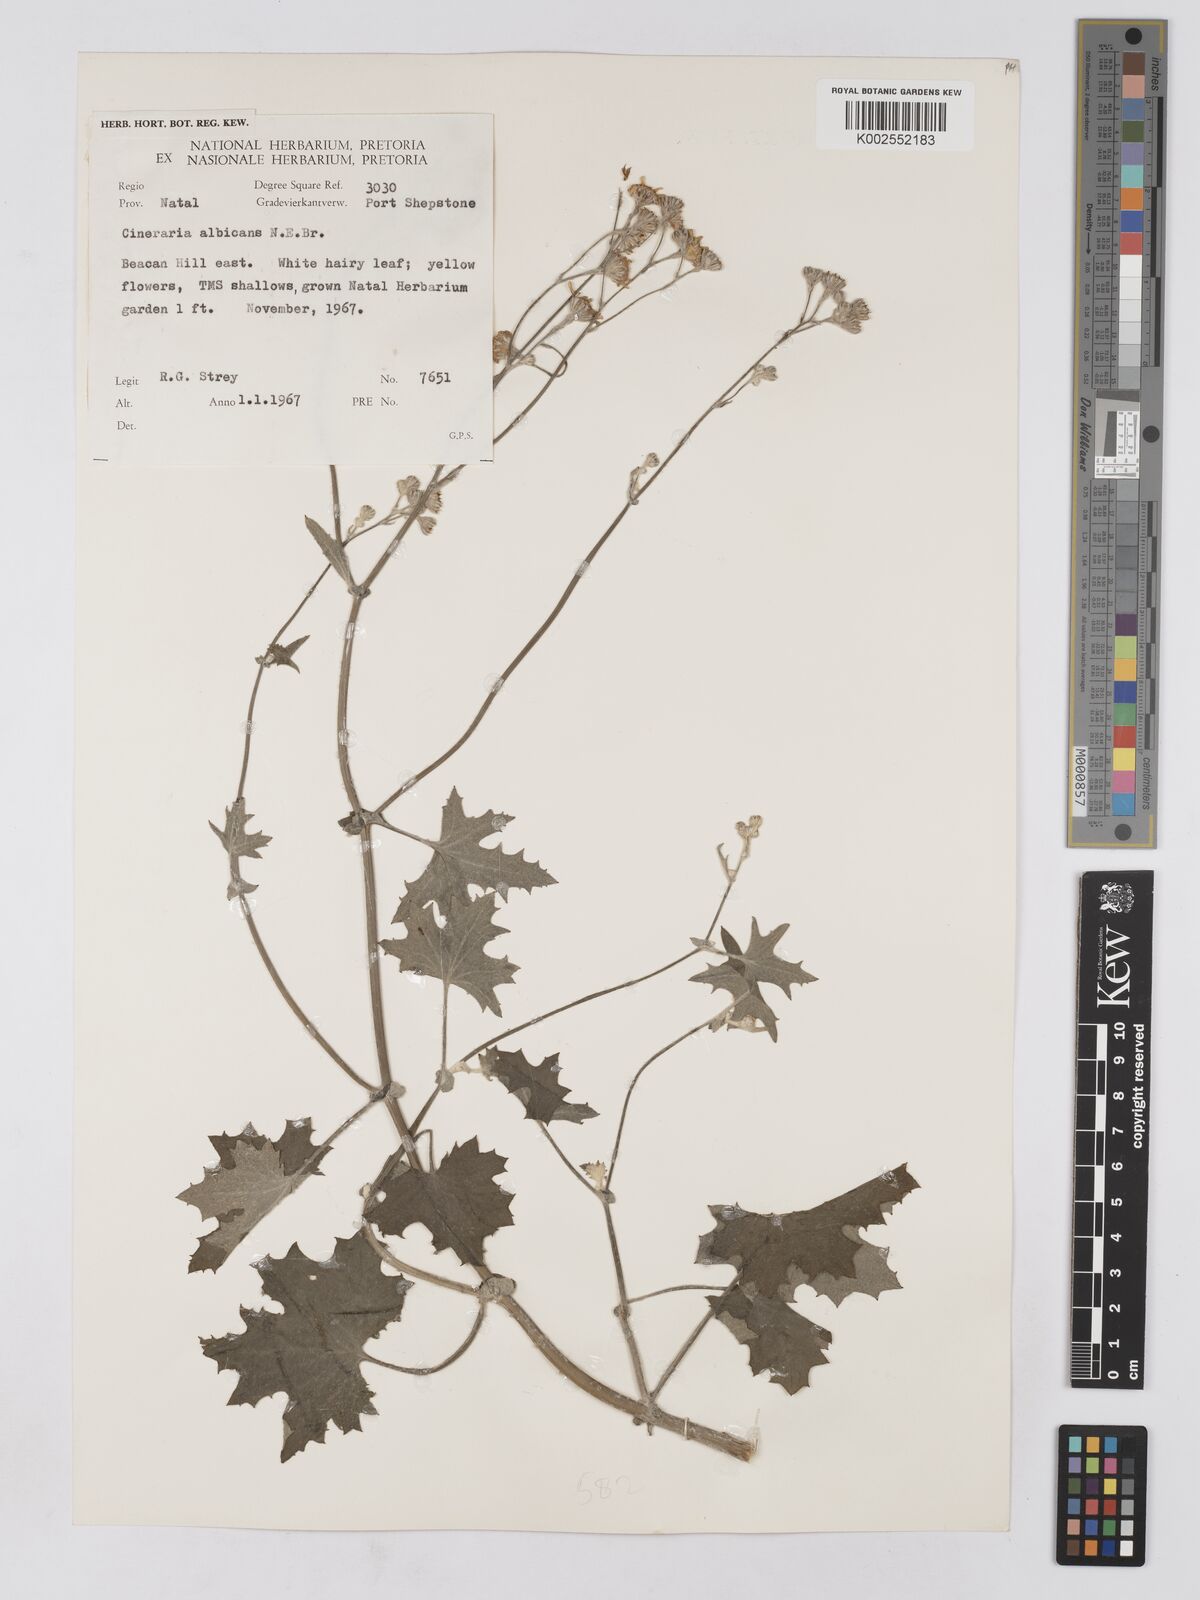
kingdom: Plantae
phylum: Tracheophyta
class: Magnoliopsida
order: Asterales
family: Asteraceae
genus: Cineraria
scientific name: Cineraria albicans
